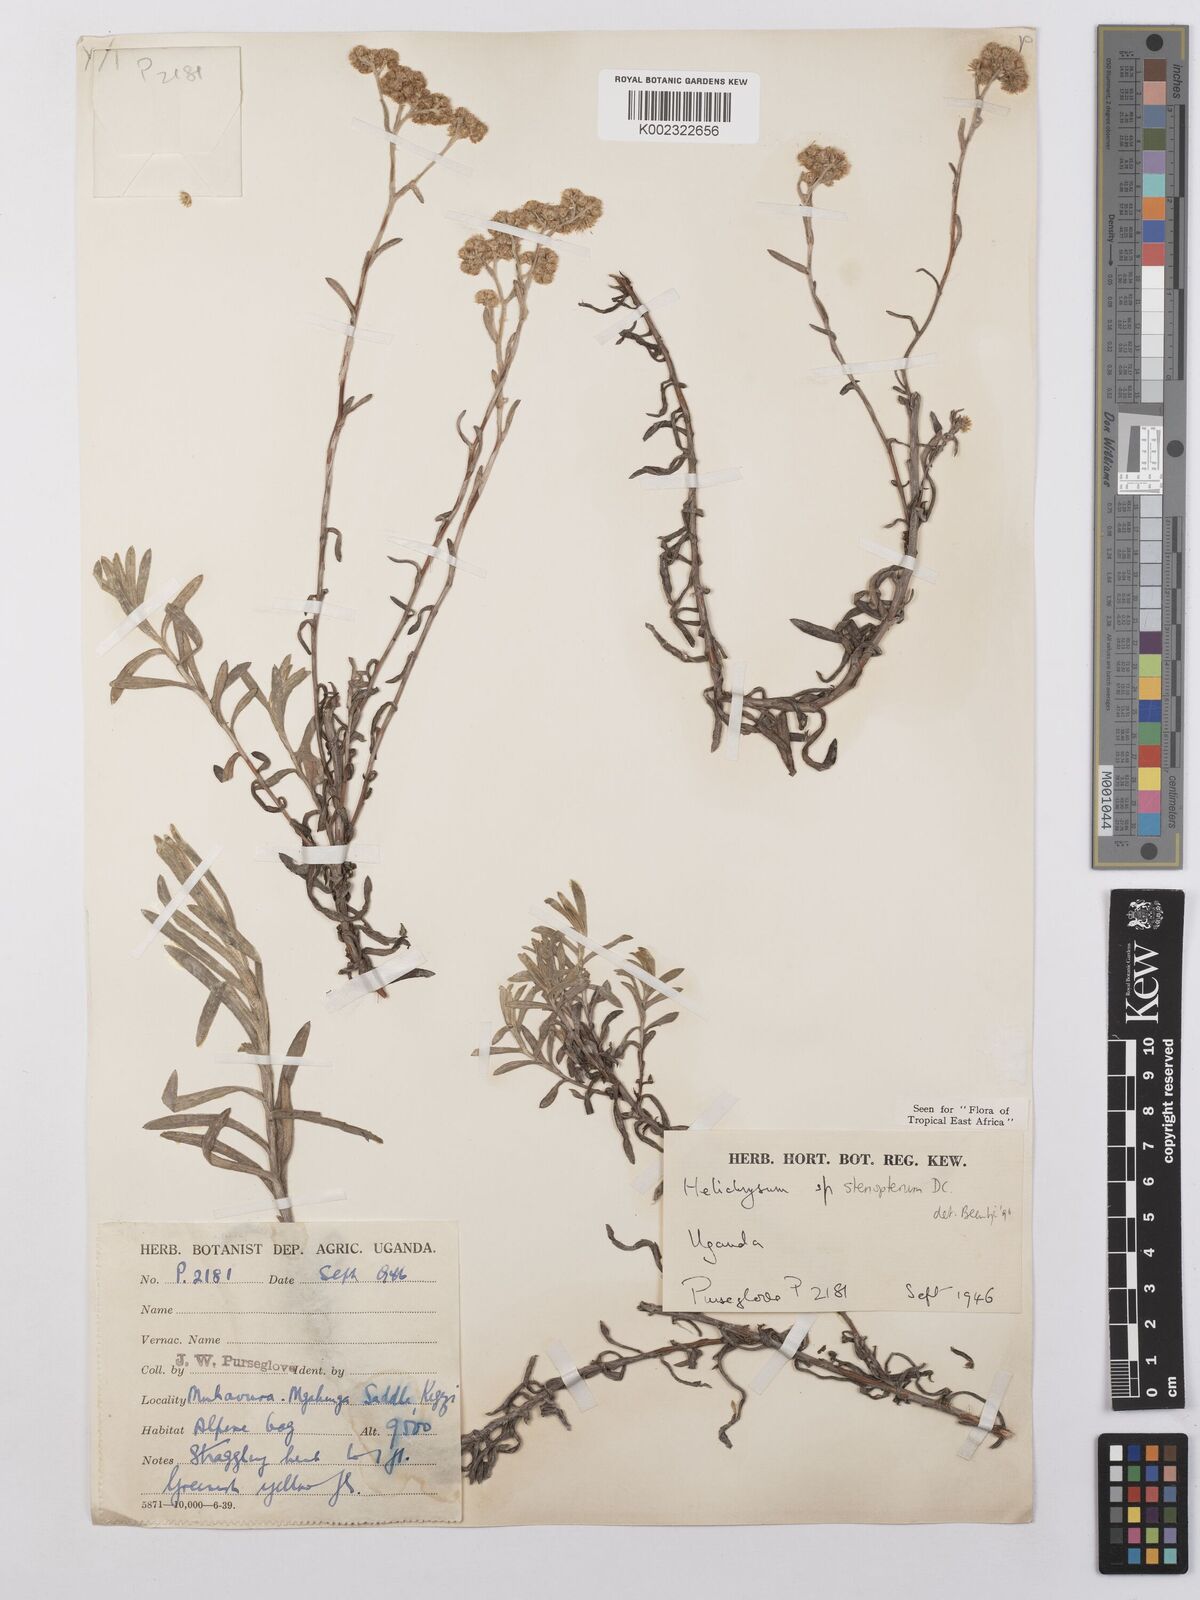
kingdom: Plantae
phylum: Tracheophyta
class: Magnoliopsida
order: Asterales
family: Asteraceae
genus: Helichrysum
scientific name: Helichrysum stenopterum
